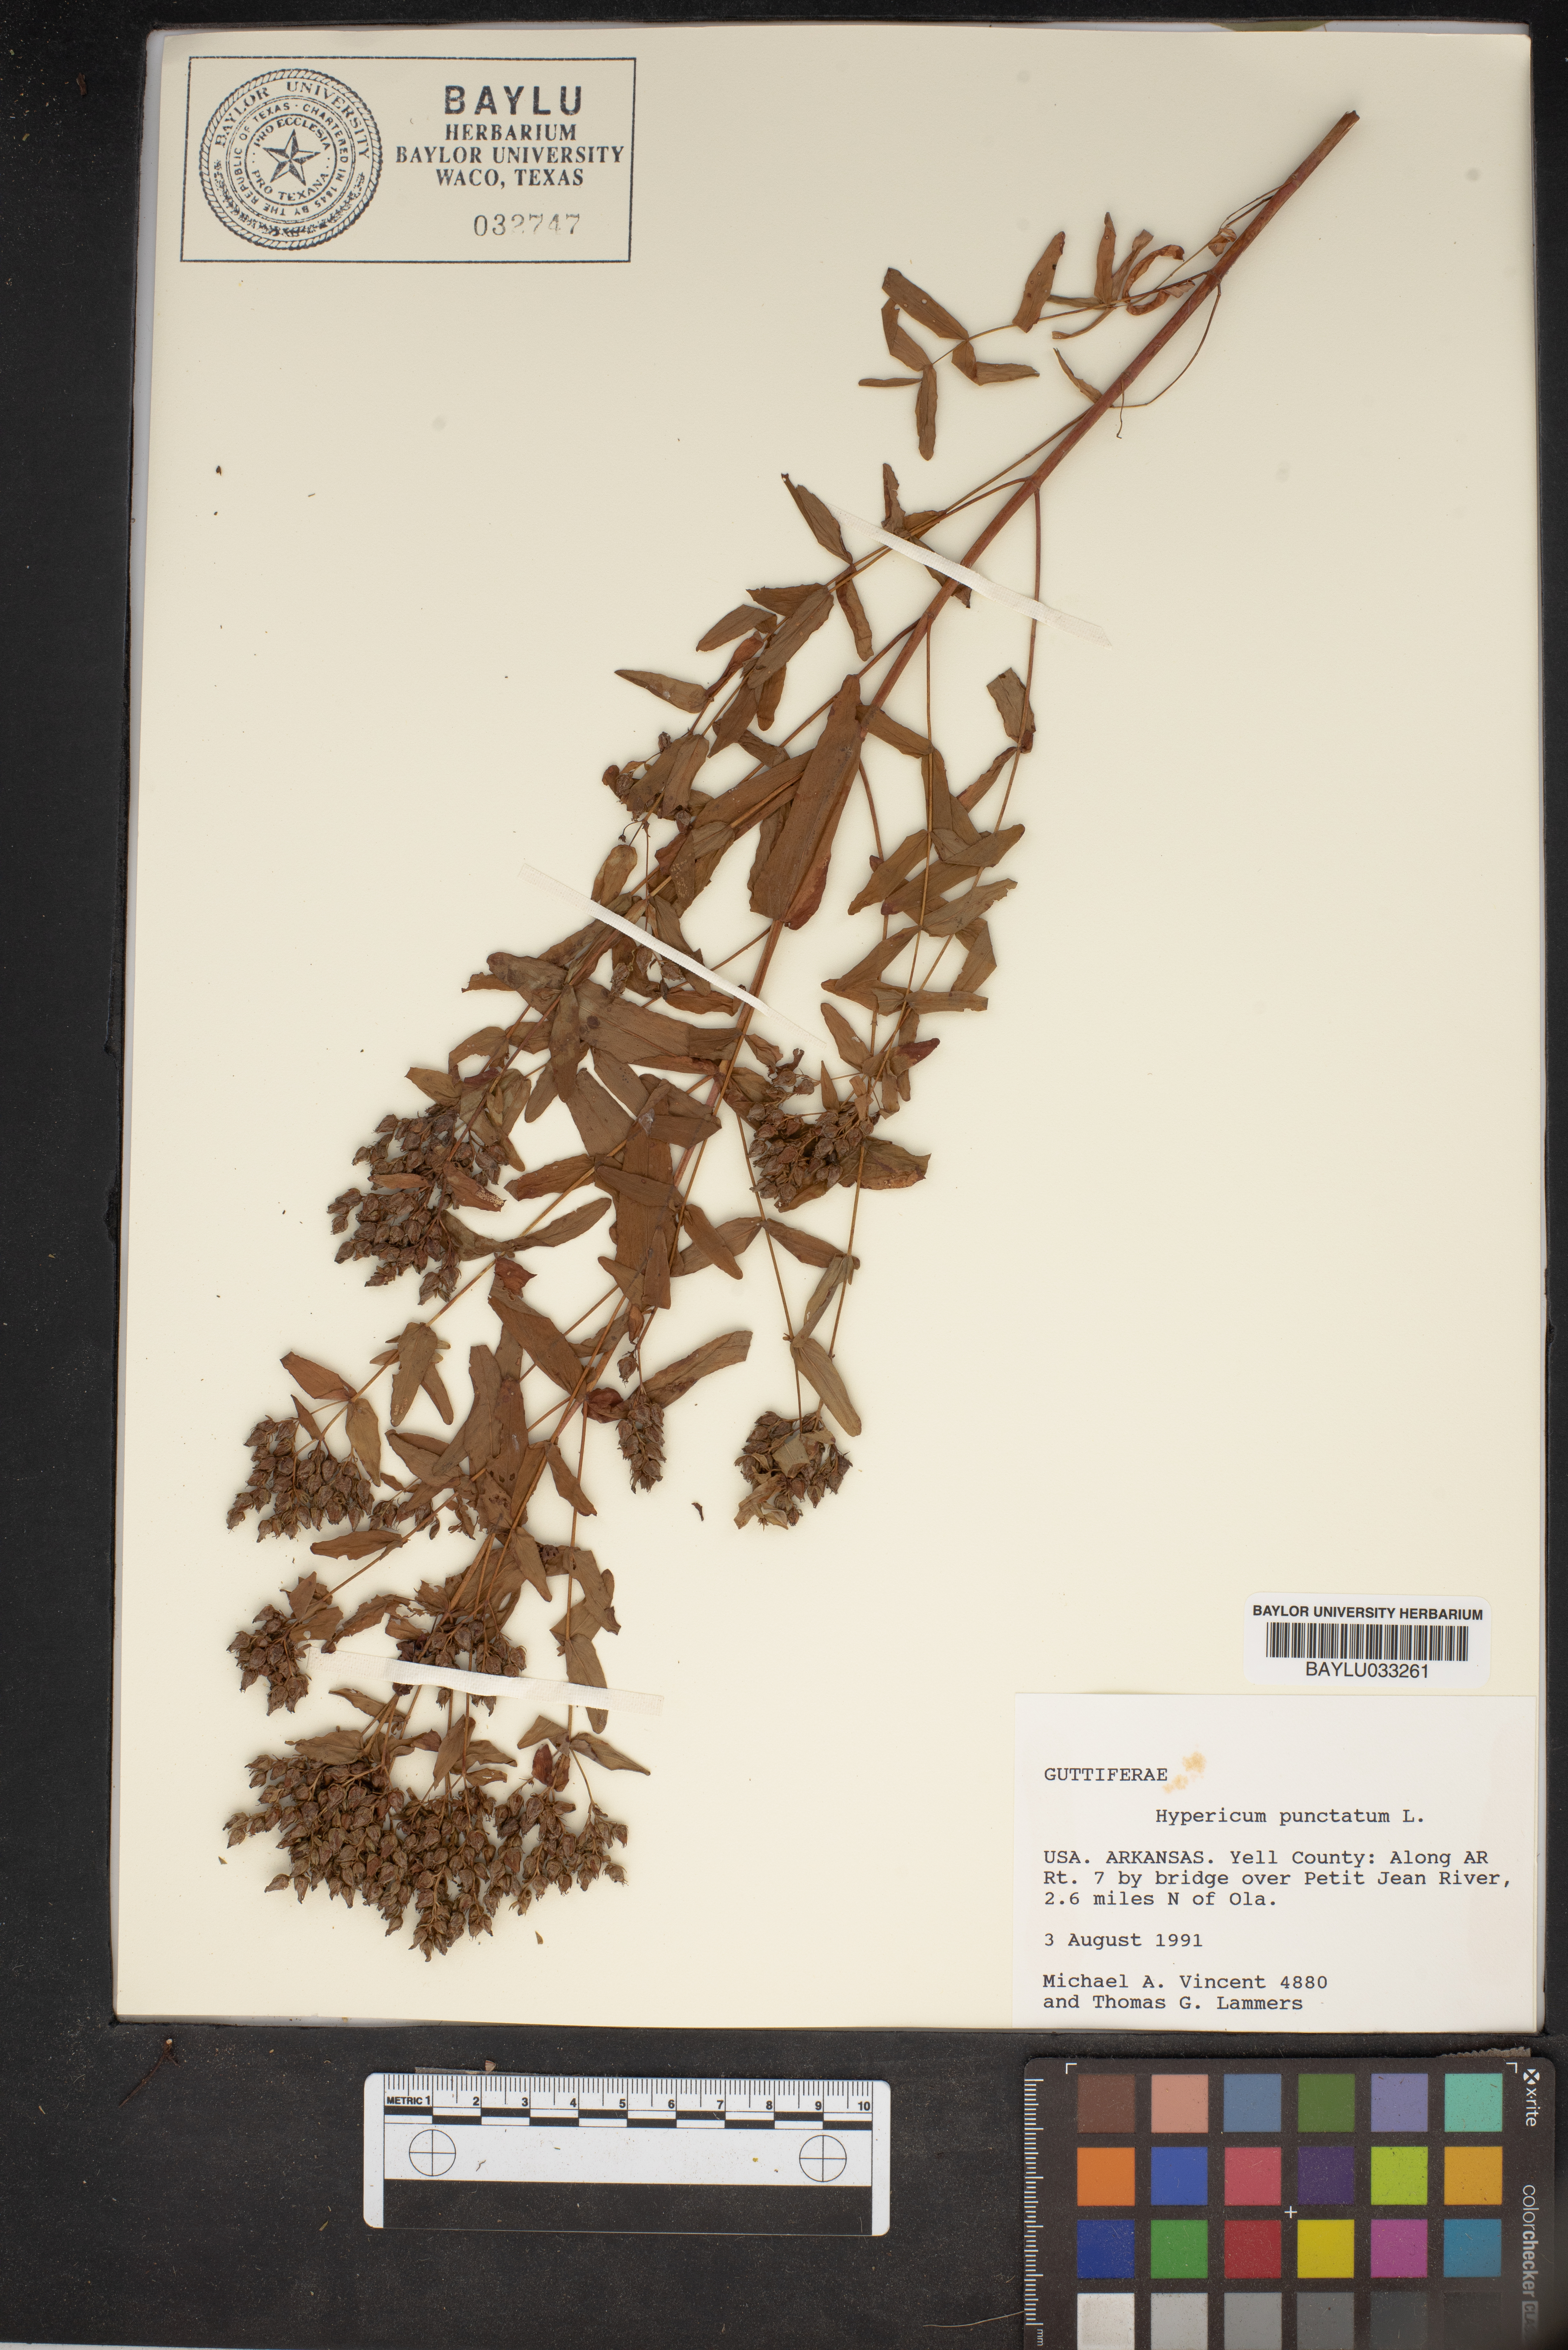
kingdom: Plantae
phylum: Tracheophyta
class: Magnoliopsida
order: Malpighiales
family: Hypericaceae
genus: Hypericum
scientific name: Hypericum punctatum
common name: Spotted st. john's-wort
